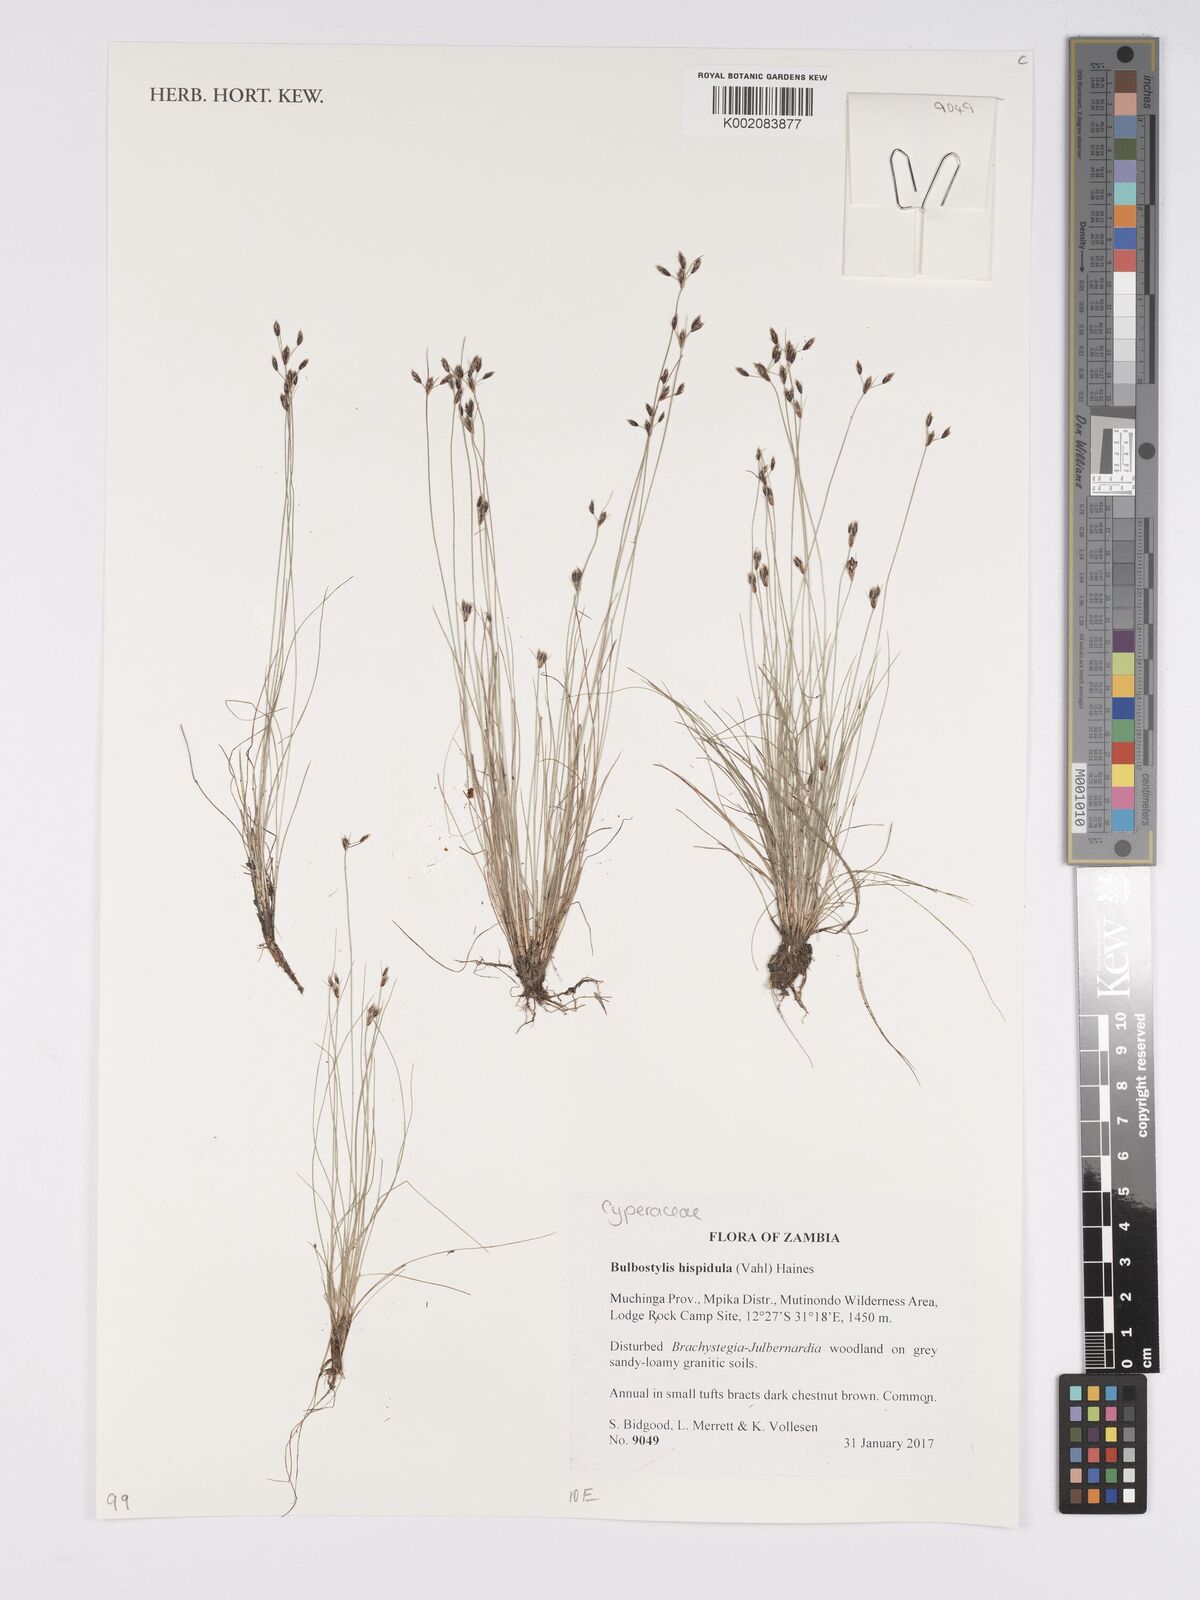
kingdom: Plantae
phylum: Tracheophyta
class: Liliopsida
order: Poales
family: Cyperaceae
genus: Bulbostylis
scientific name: Bulbostylis hispidula
